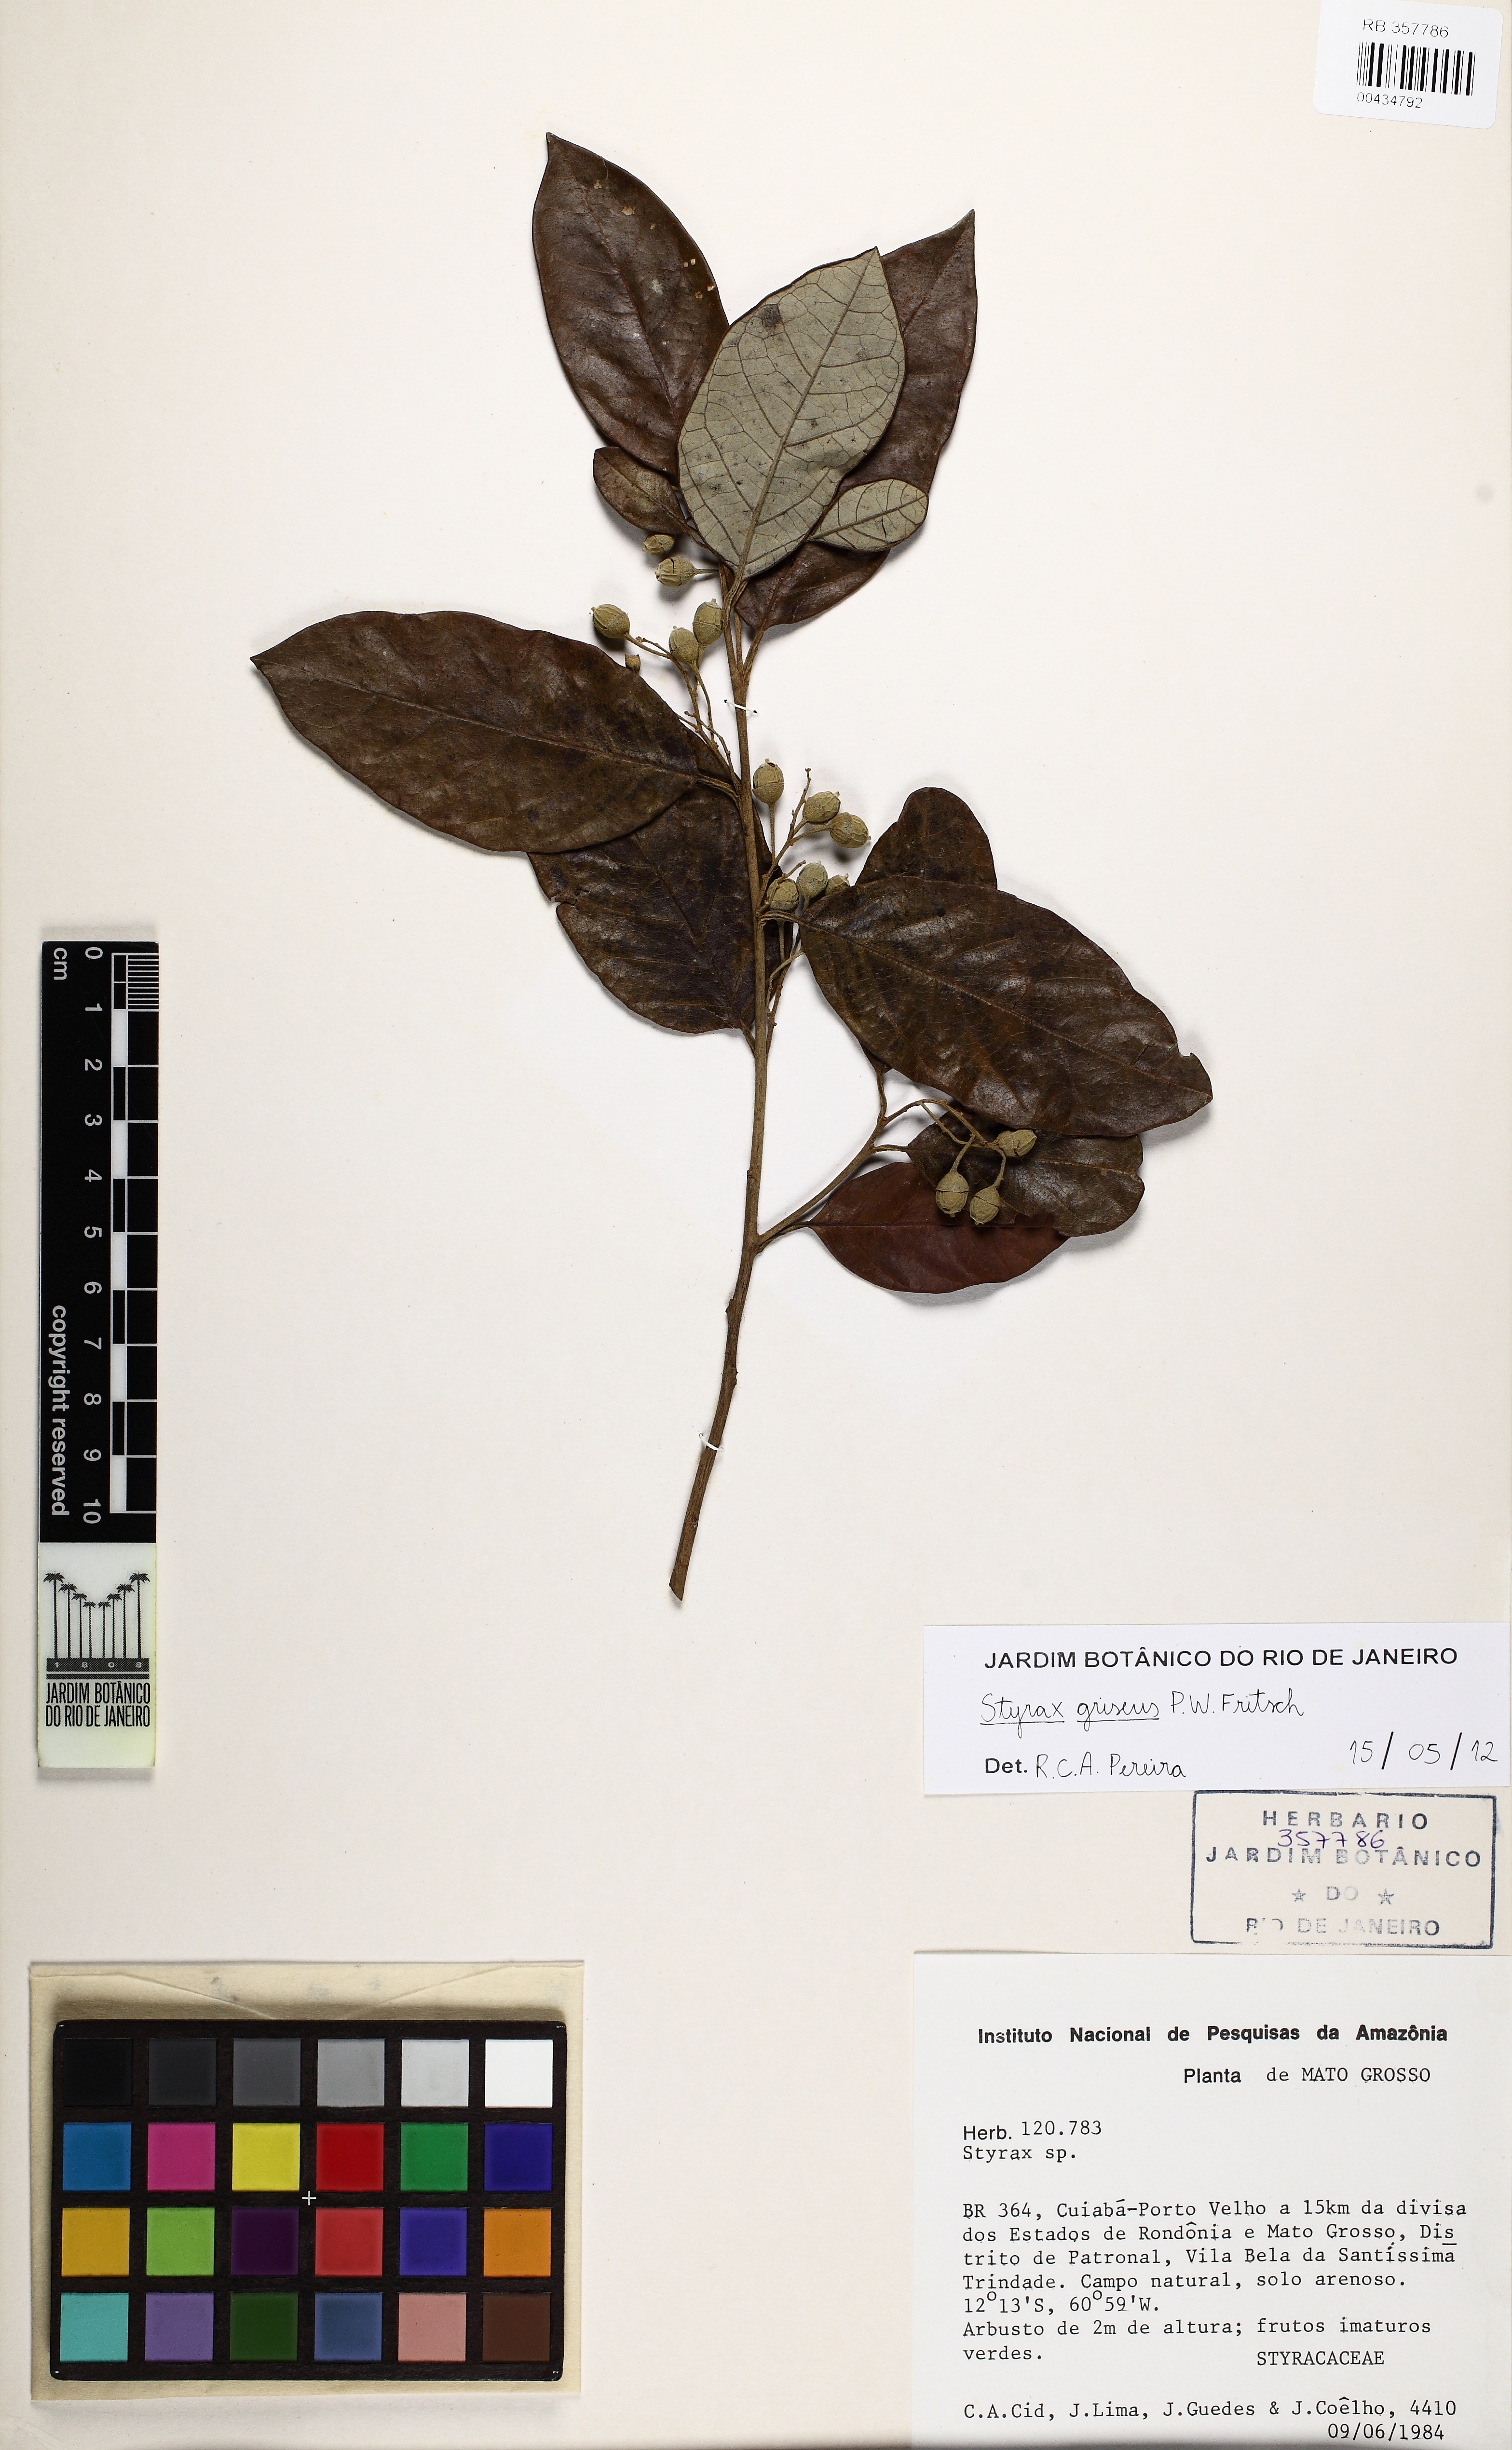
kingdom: Plantae
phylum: Tracheophyta
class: Magnoliopsida
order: Ericales
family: Styracaceae
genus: Styrax
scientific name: Styrax
